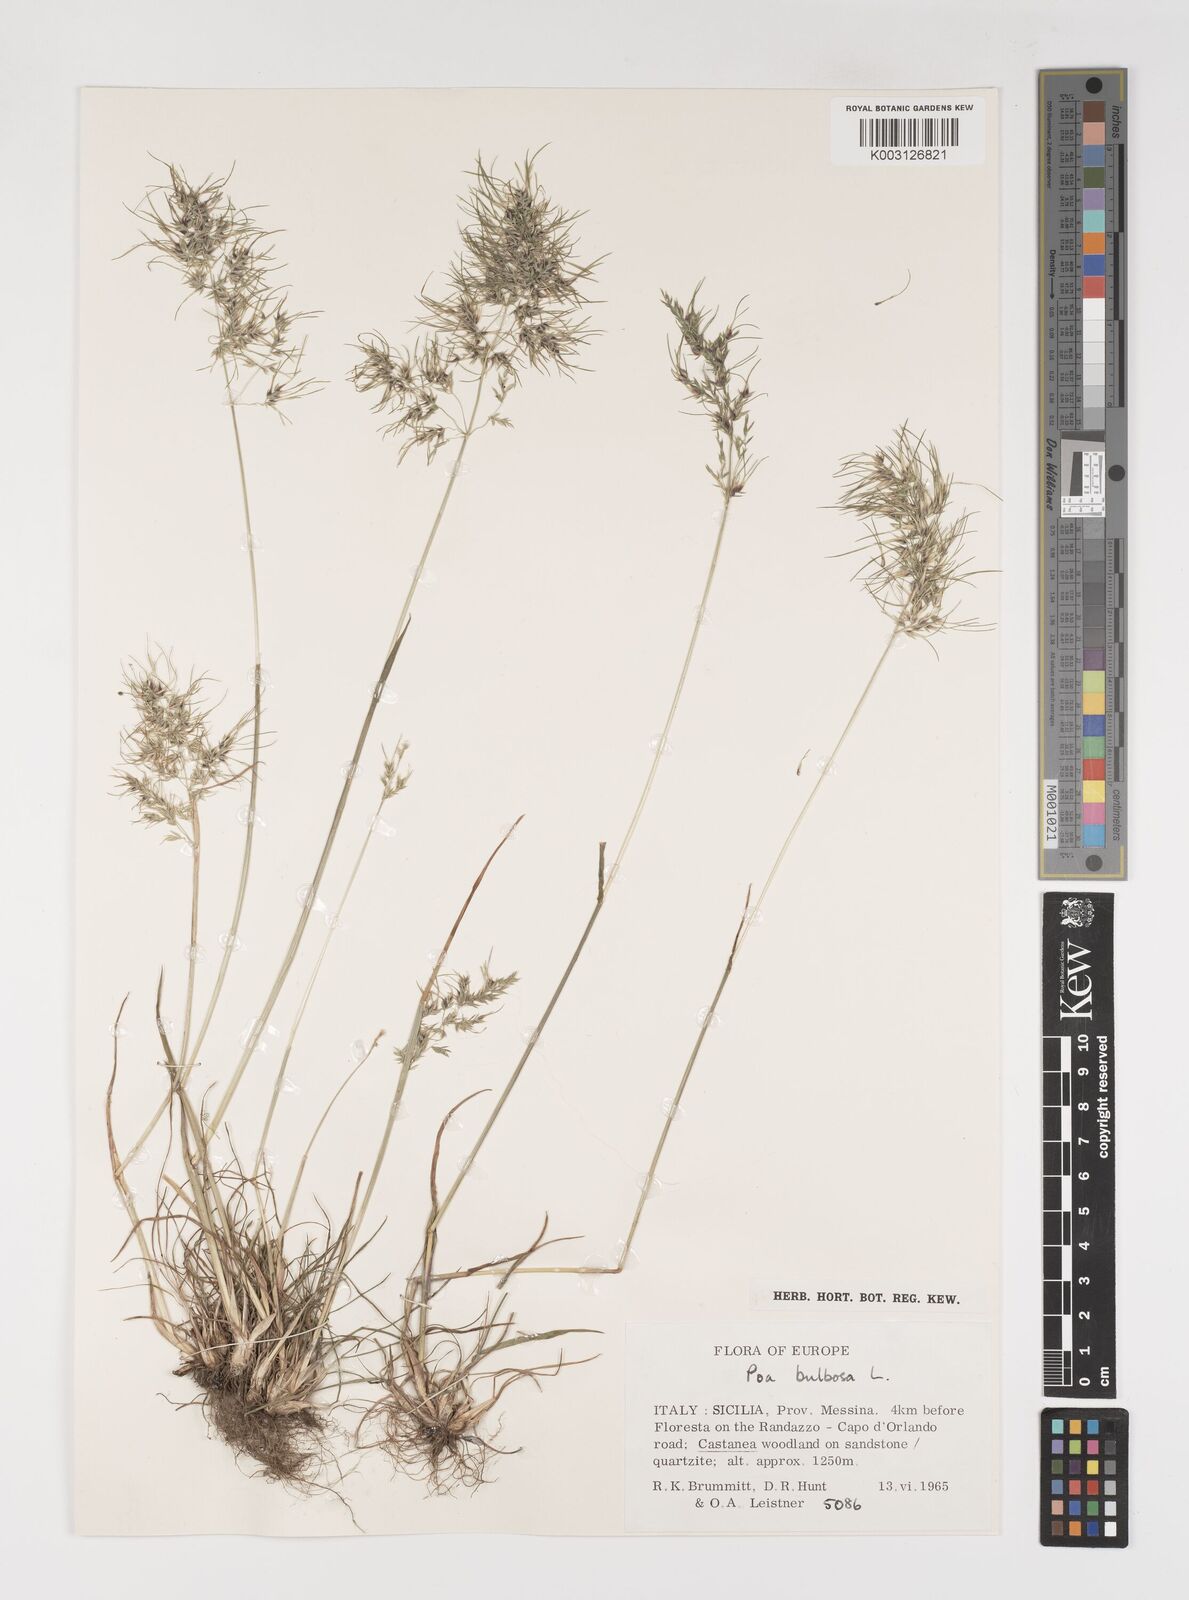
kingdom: Plantae
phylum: Tracheophyta
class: Liliopsida
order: Poales
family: Poaceae
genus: Poa
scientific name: Poa bulbosa
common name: Bulbous bluegrass
